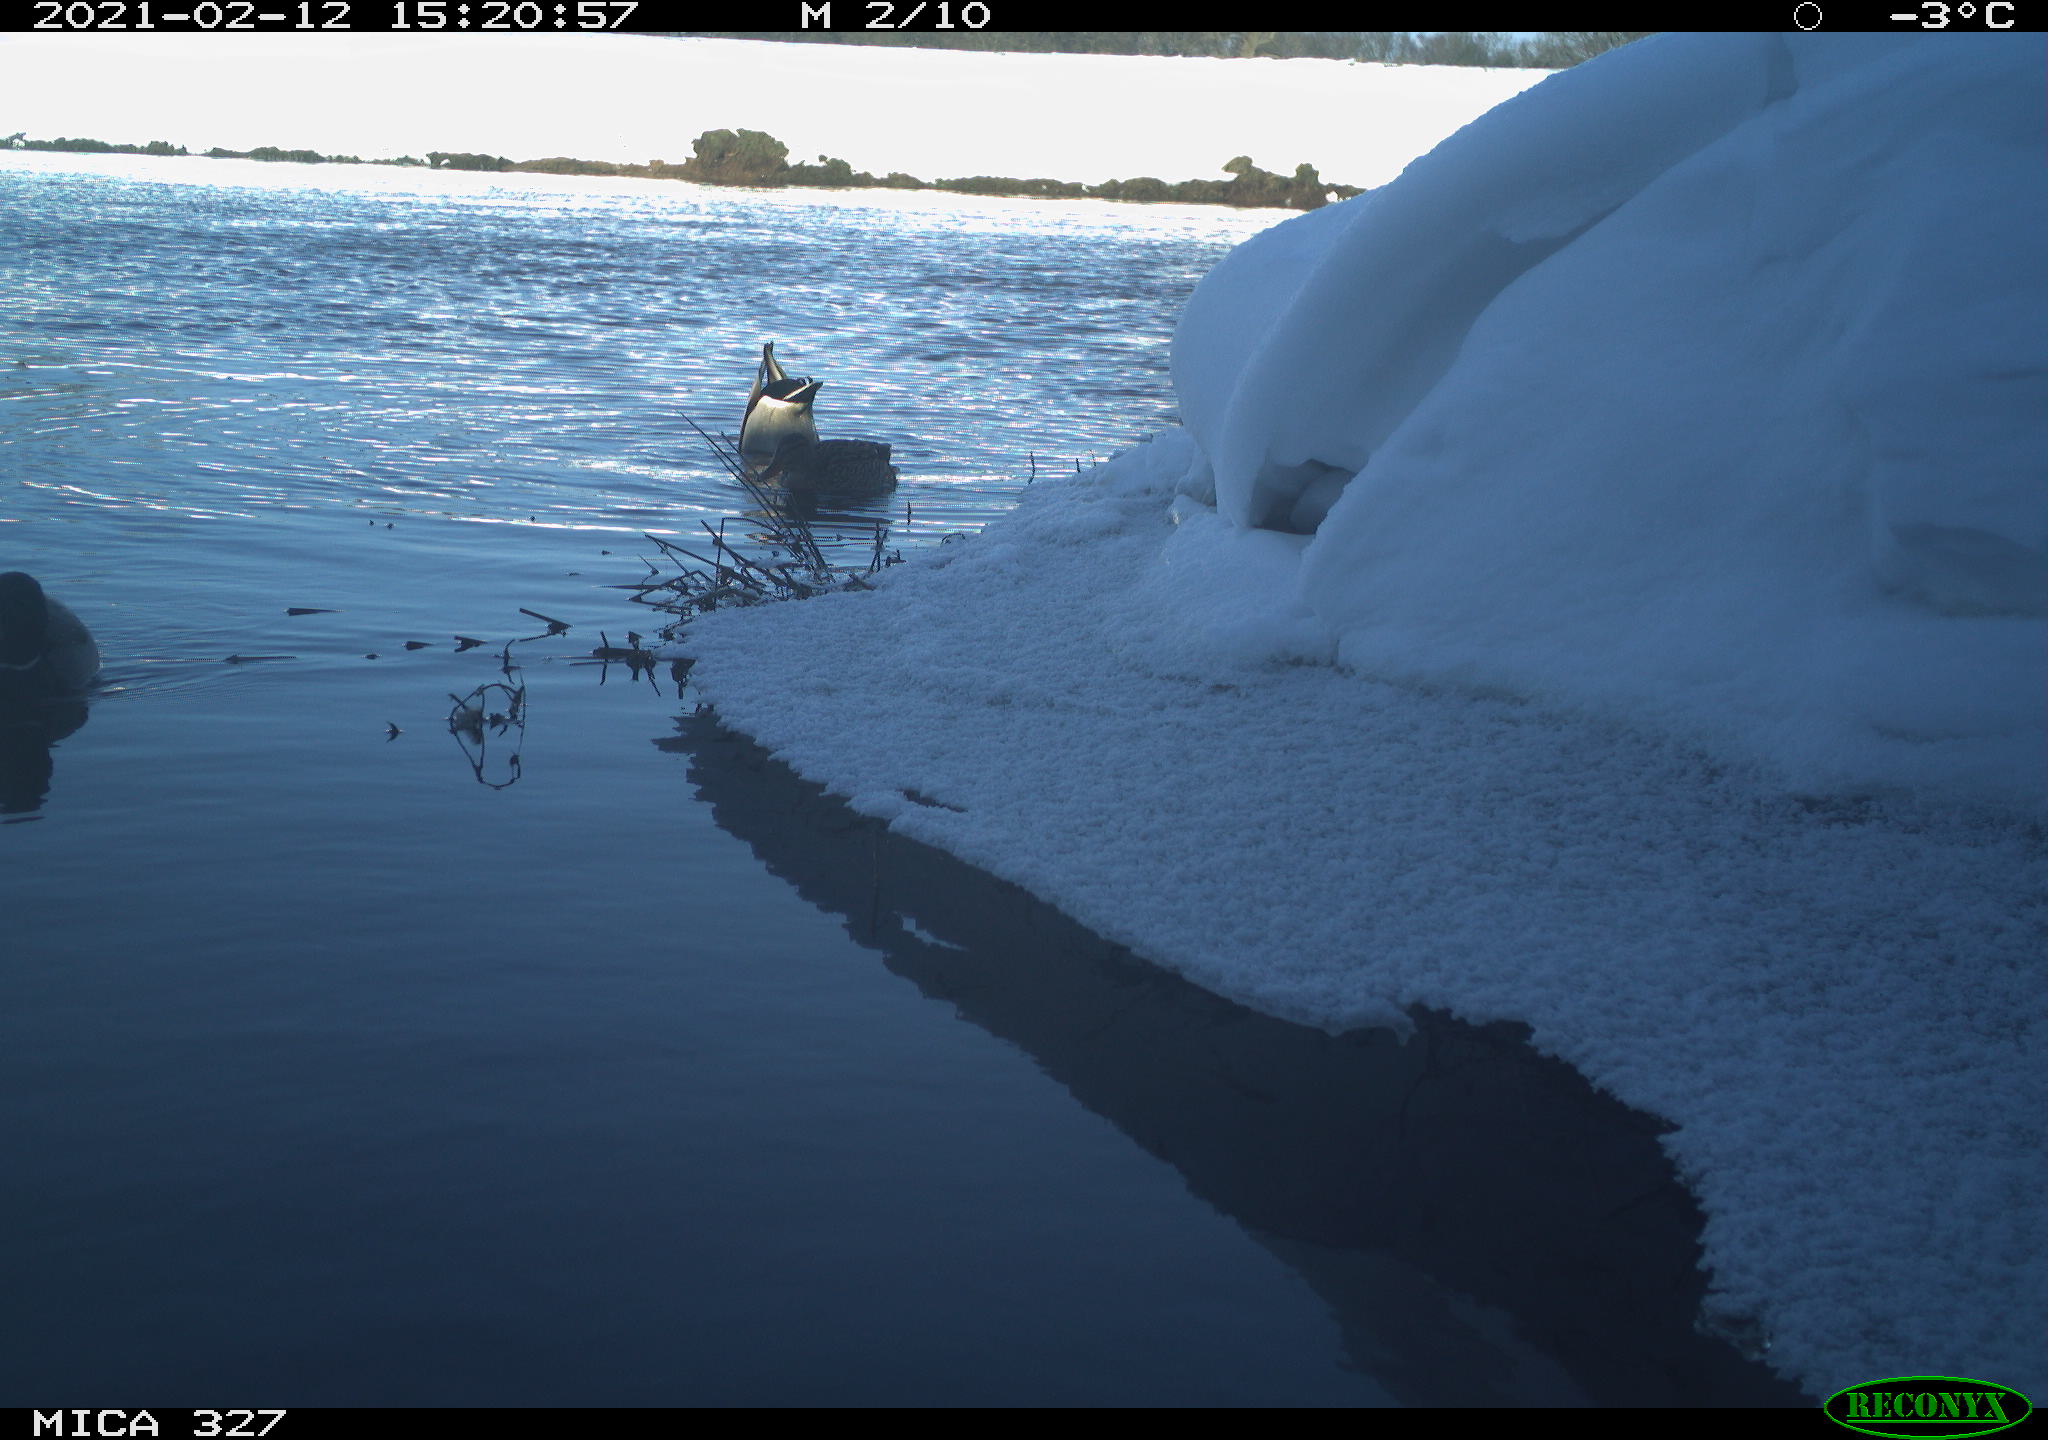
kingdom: Animalia
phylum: Chordata
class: Aves
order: Anseriformes
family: Anatidae
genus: Anas
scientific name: Anas platyrhynchos
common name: Mallard
